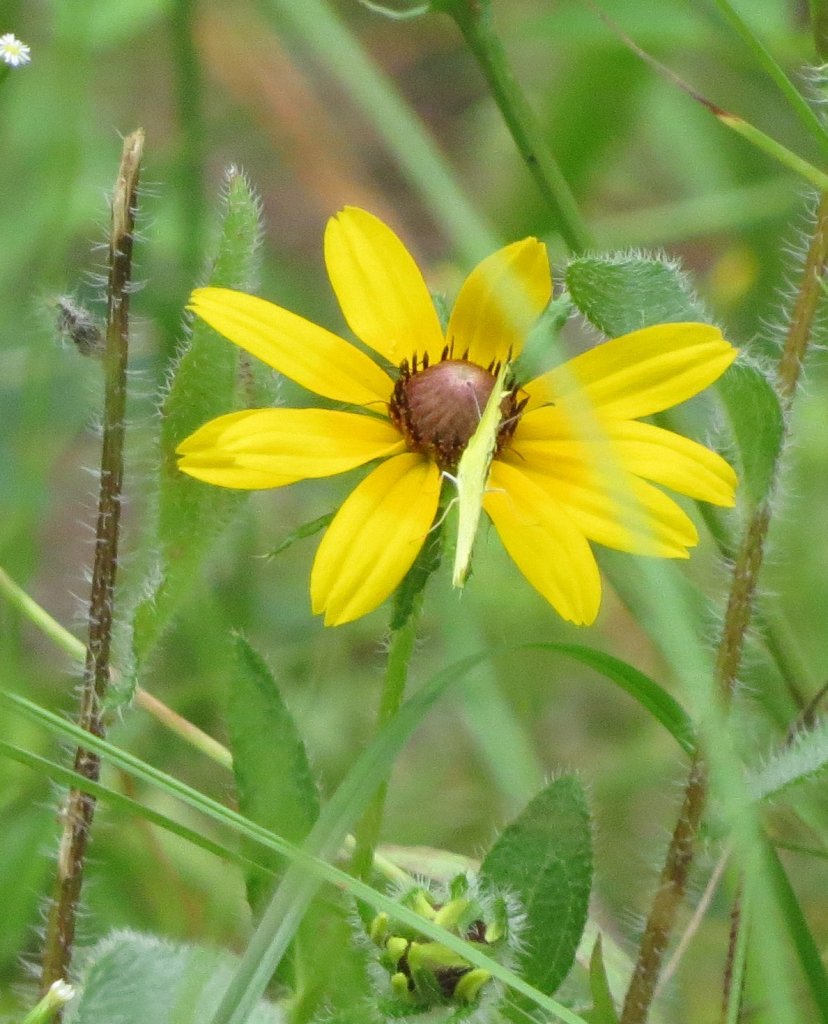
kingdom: Animalia
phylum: Arthropoda
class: Insecta
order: Lepidoptera
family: Pieridae
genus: Pyrisitia
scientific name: Pyrisitia lisa
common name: Little Yellow
